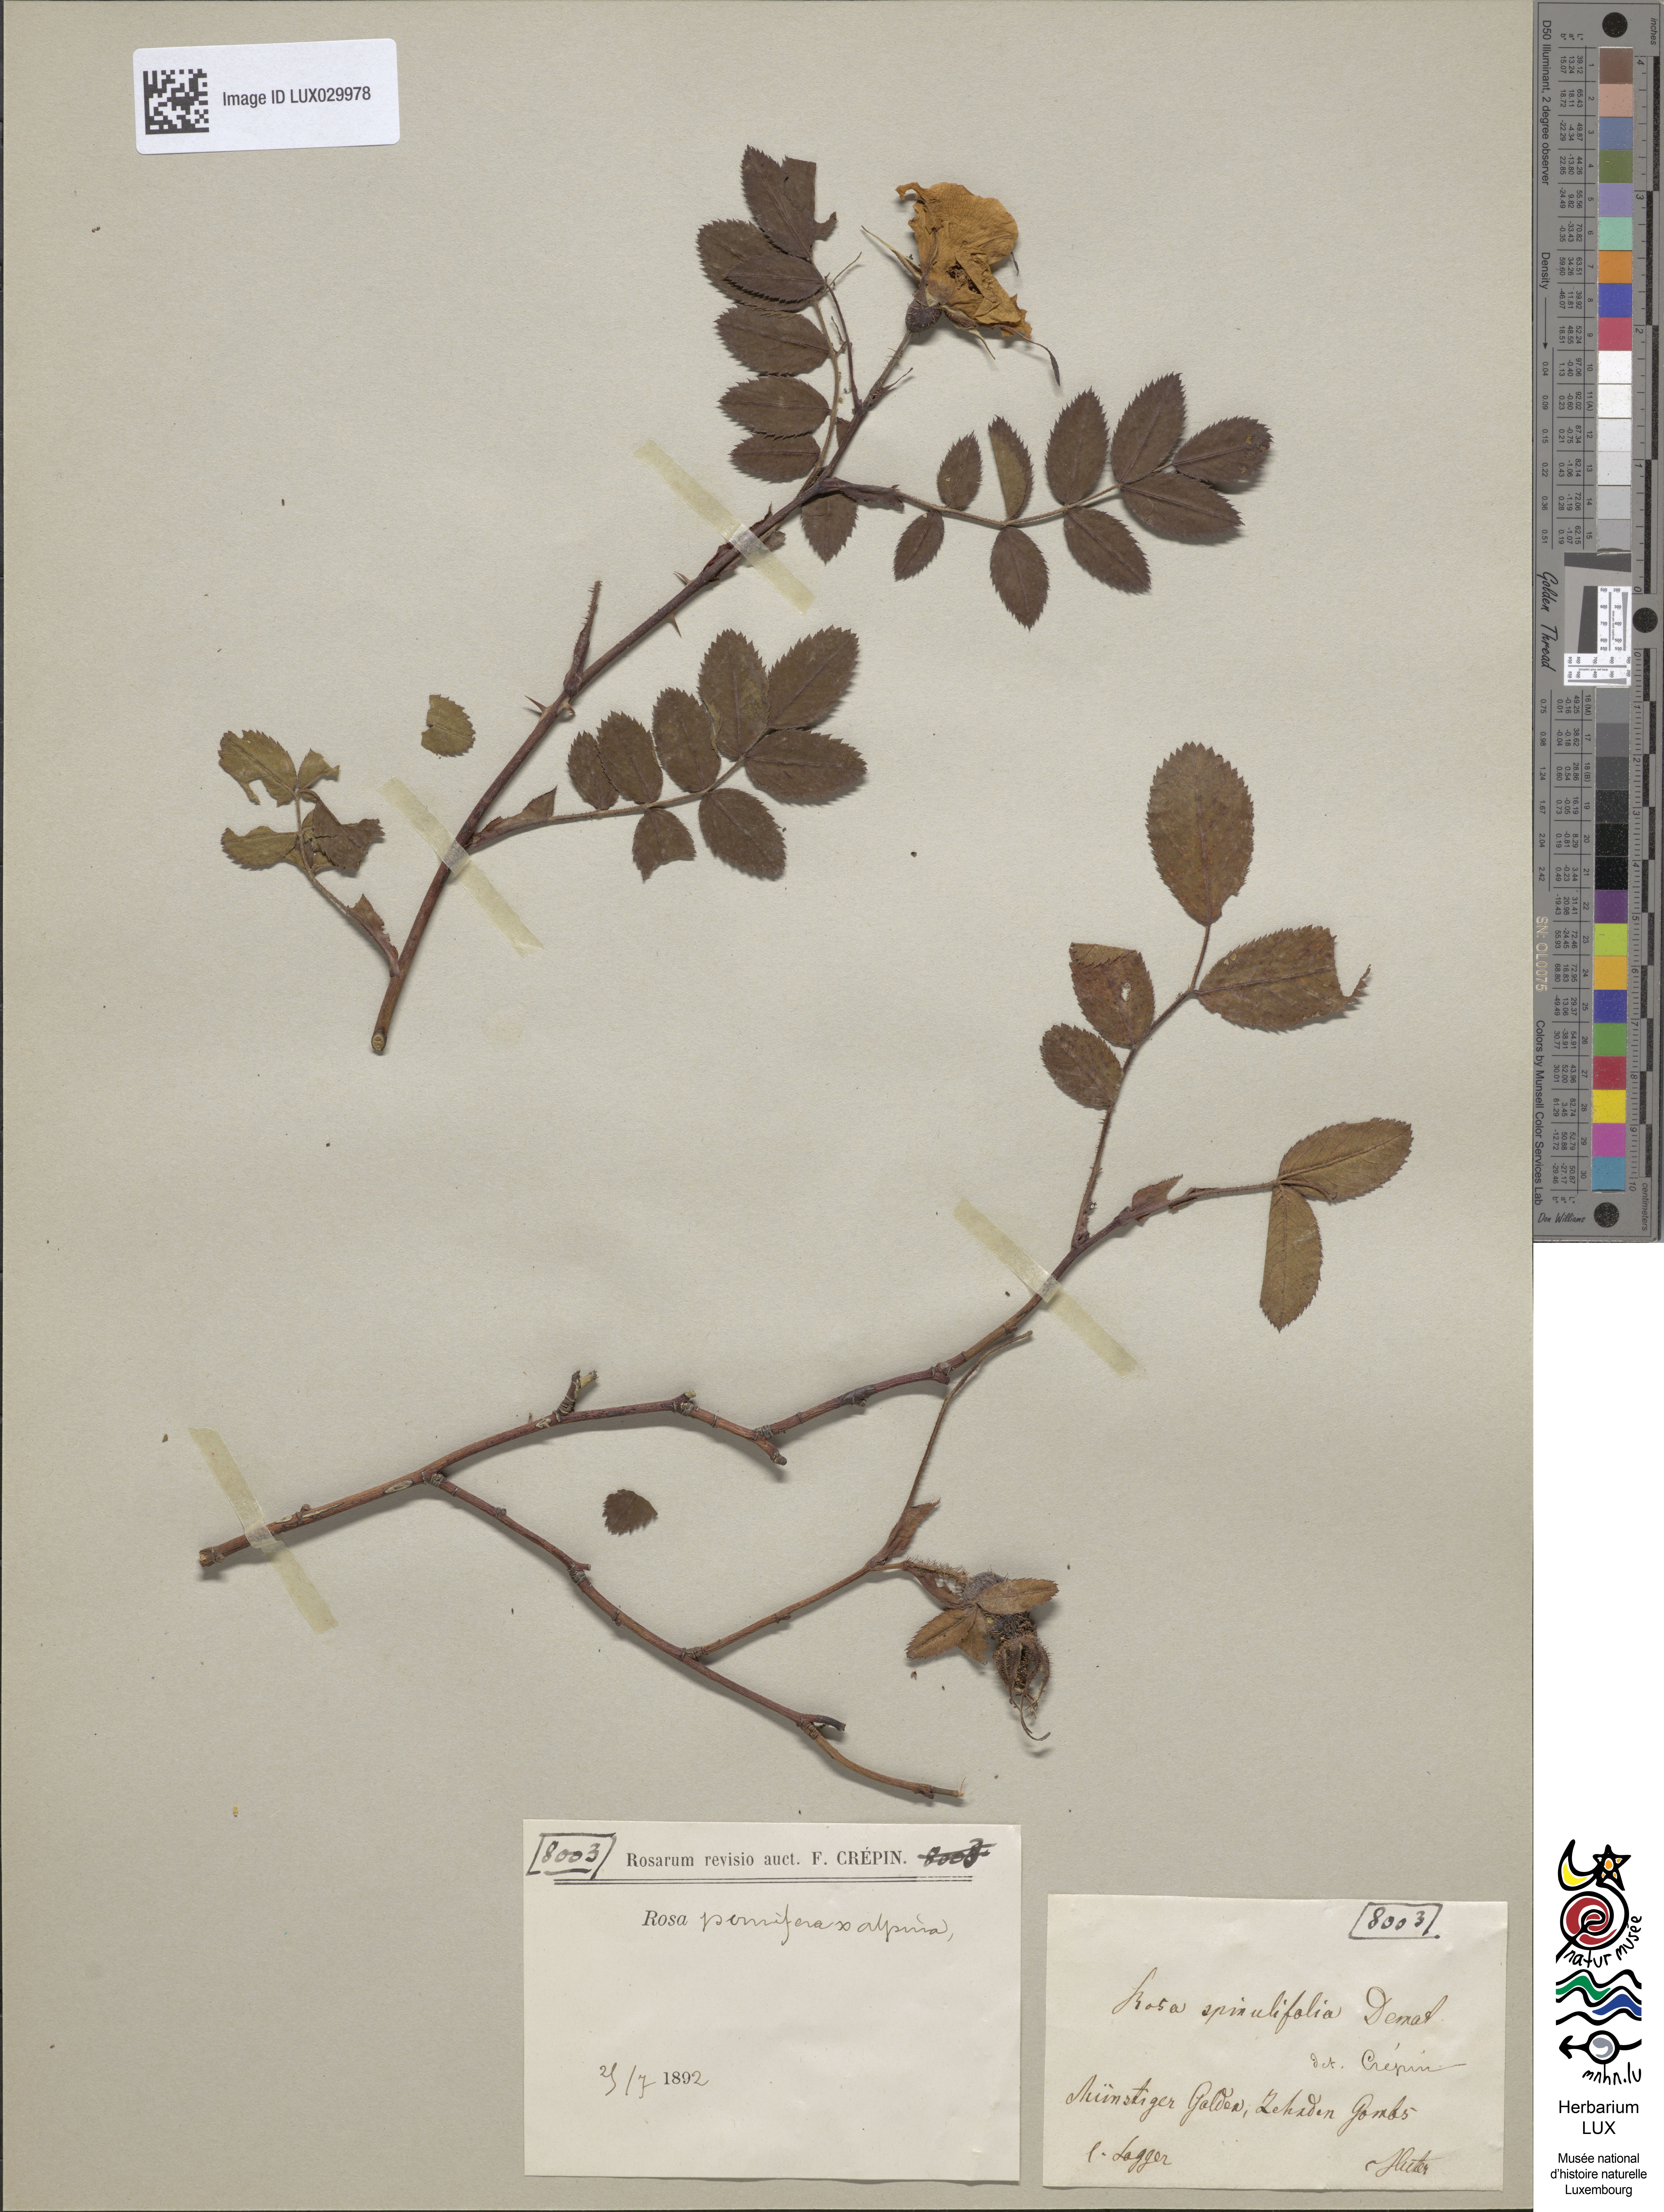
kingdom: Plantae
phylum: Tracheophyta
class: Magnoliopsida
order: Rosales
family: Rosaceae
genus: Rosa
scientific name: Rosa villosa
